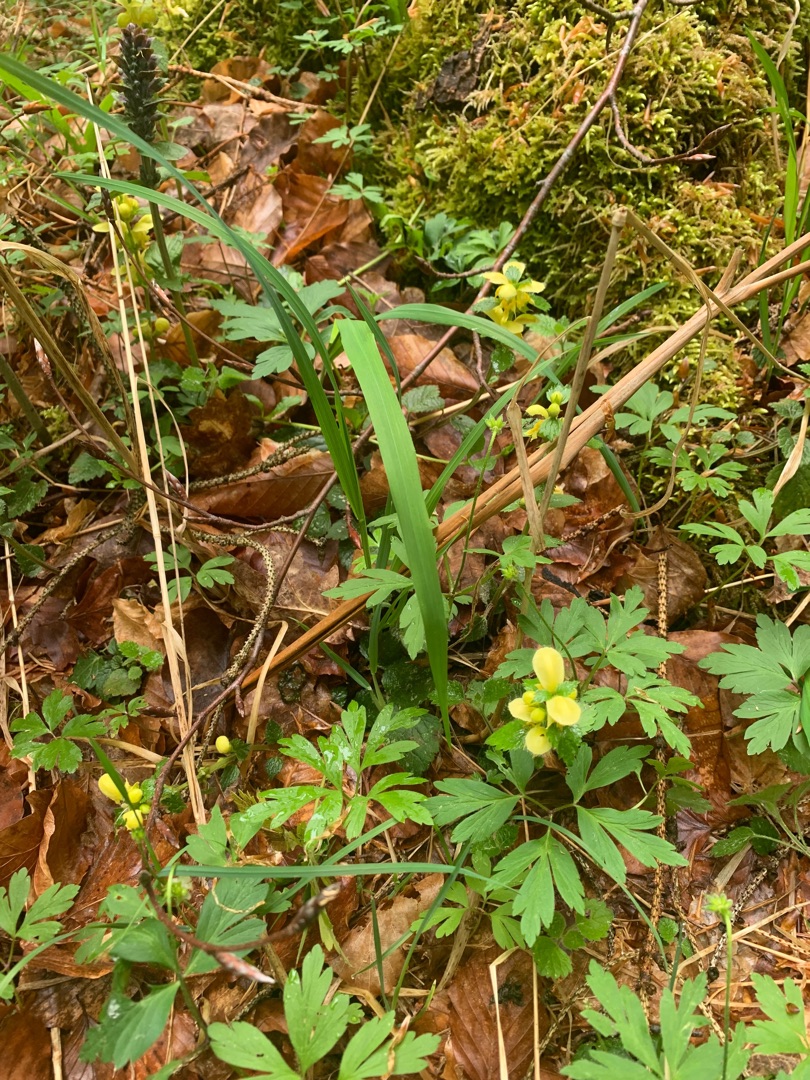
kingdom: Plantae
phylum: Tracheophyta
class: Magnoliopsida
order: Lamiales
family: Lamiaceae
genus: Lamium
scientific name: Lamium galeobdolon
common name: Guldnælde
